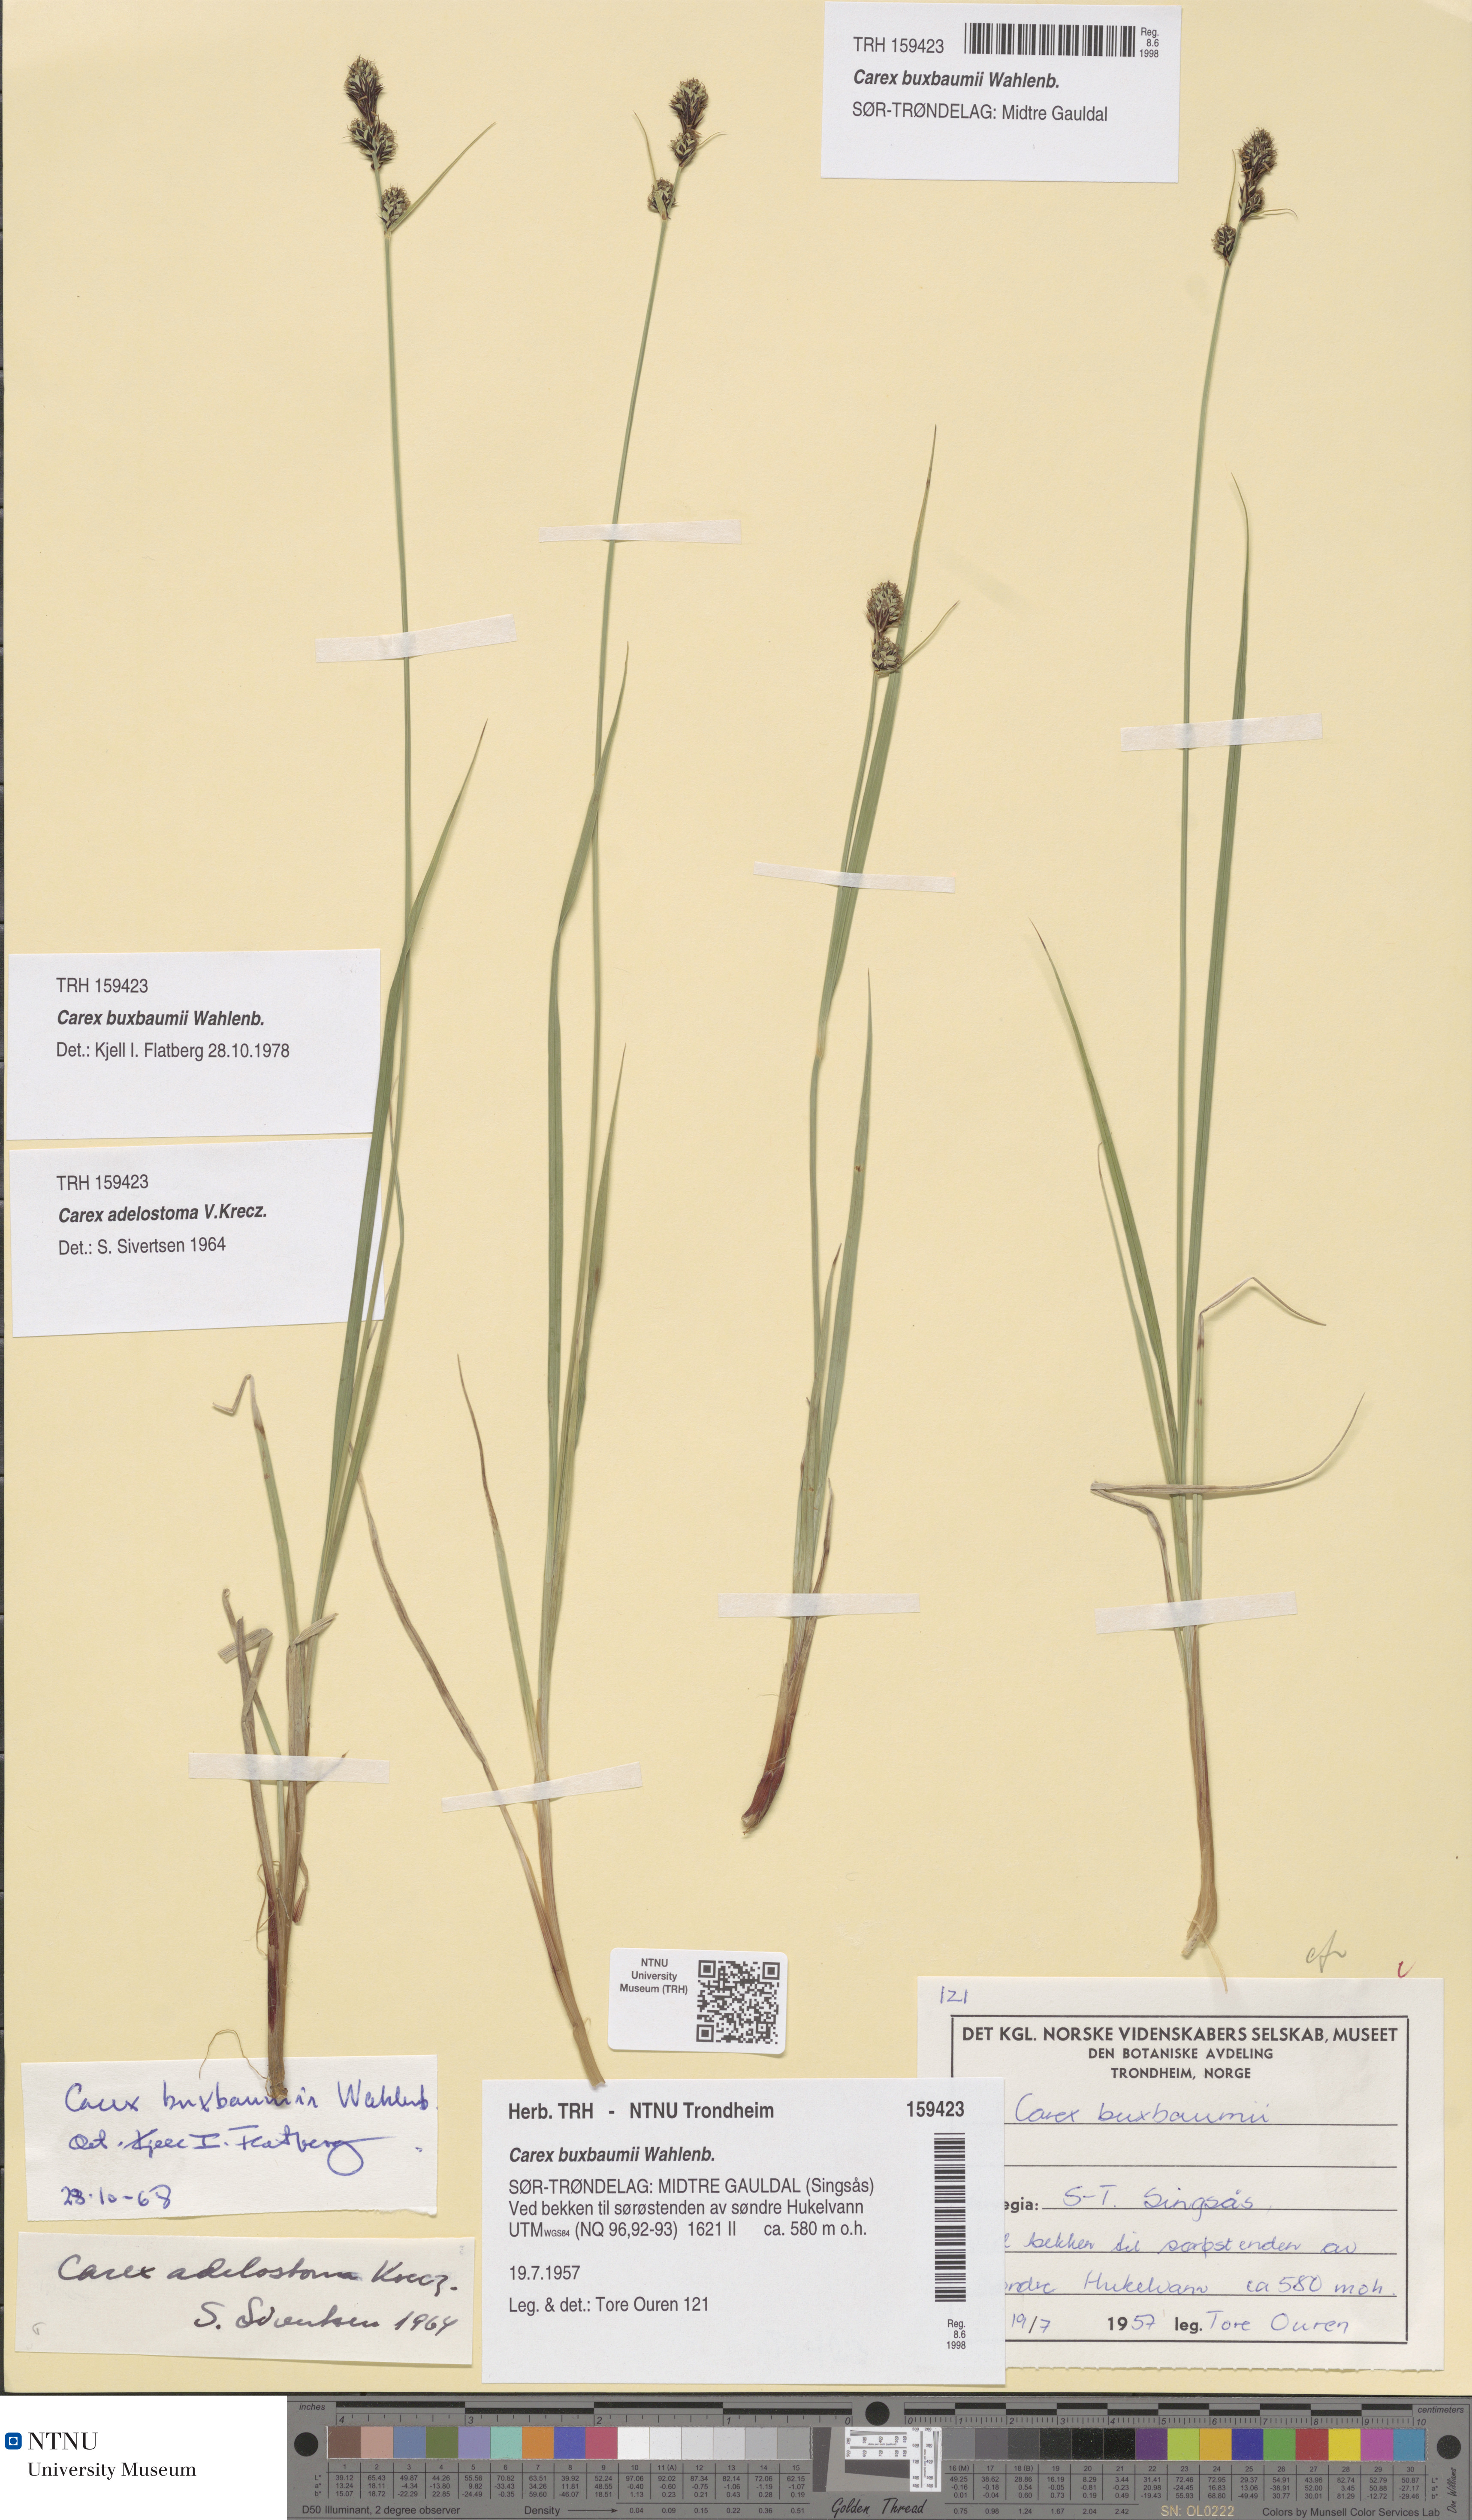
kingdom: Plantae
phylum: Tracheophyta
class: Liliopsida
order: Poales
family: Cyperaceae
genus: Carex
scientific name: Carex buxbaumii
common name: Club sedge
